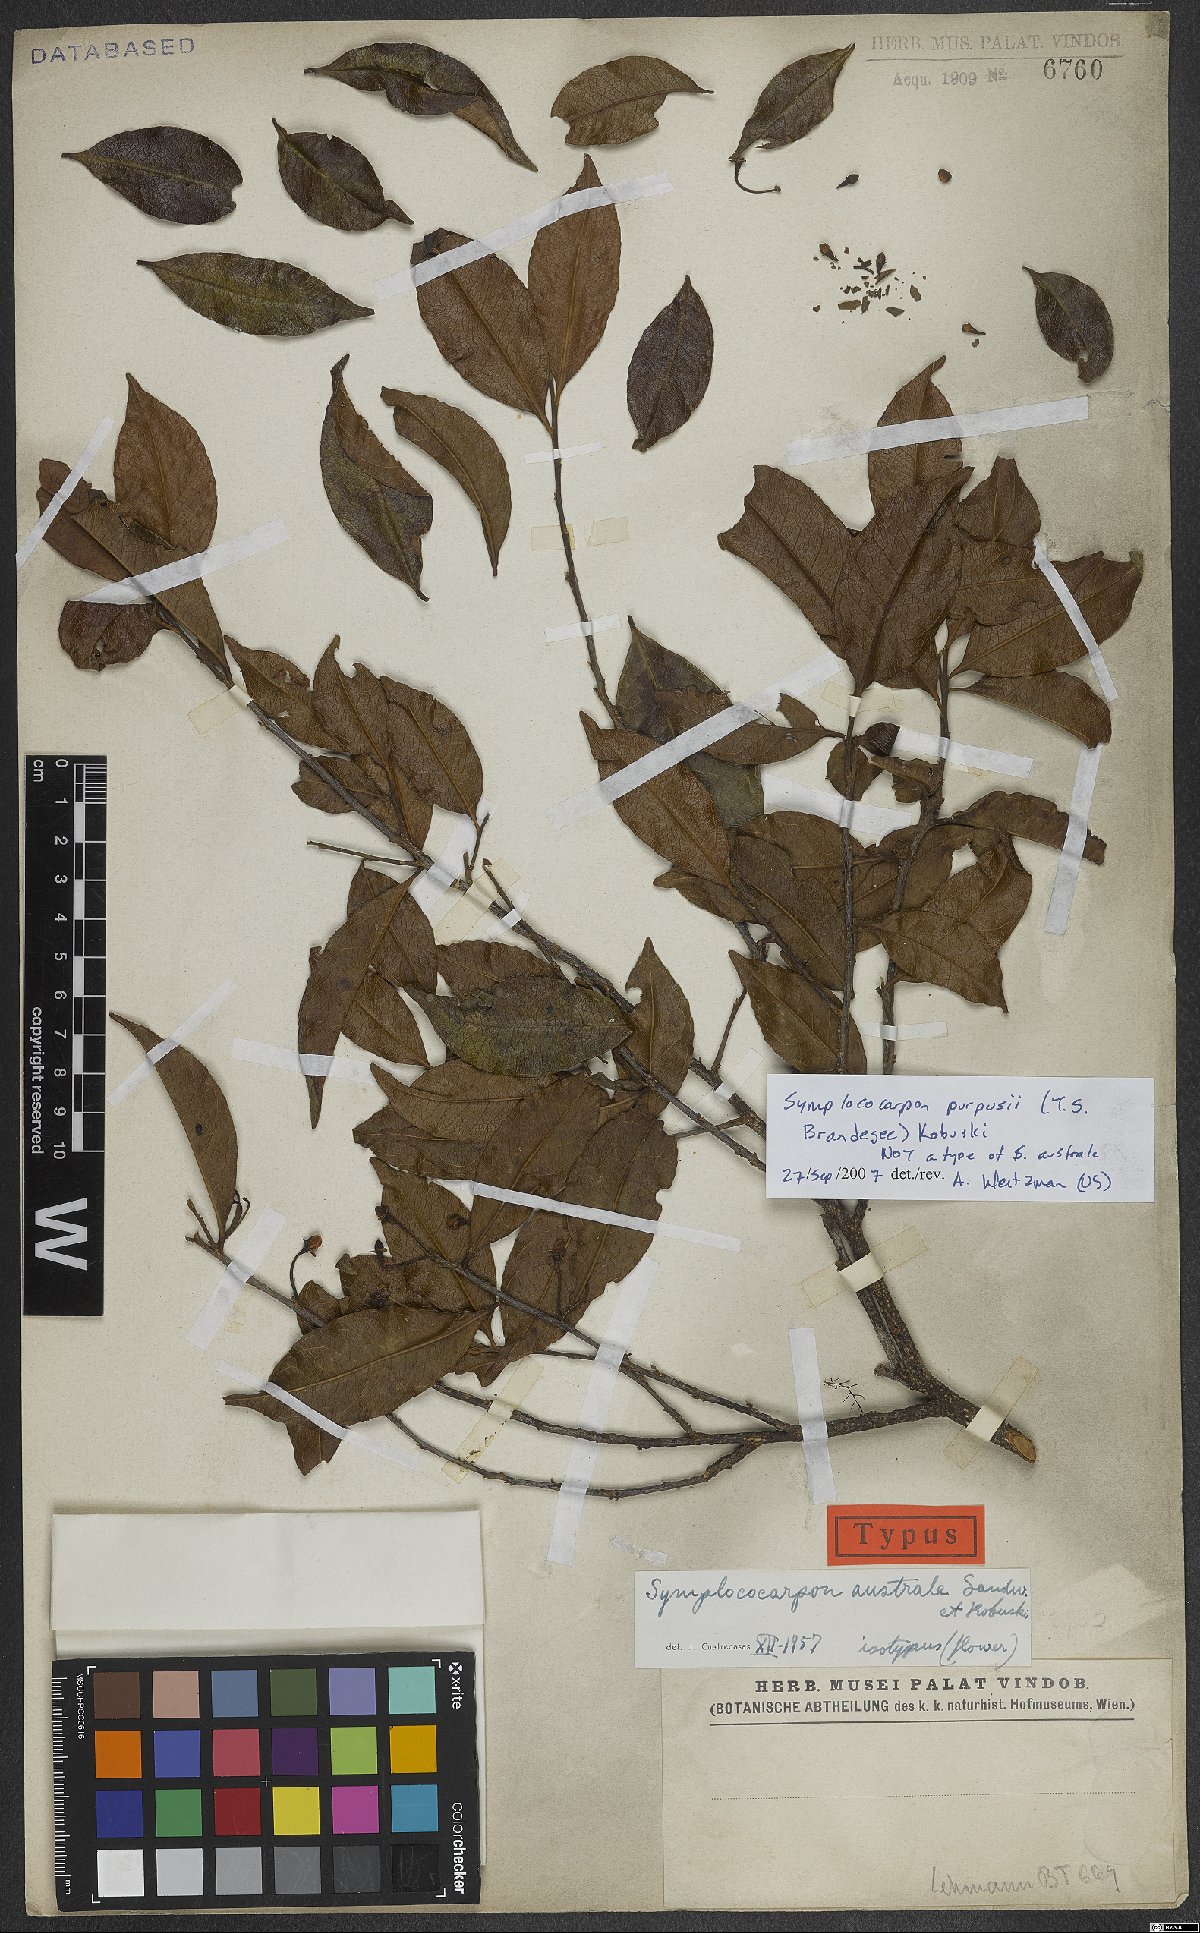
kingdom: Plantae
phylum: Tracheophyta
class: Magnoliopsida
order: Ericales
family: Pentaphylacaceae
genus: Symplococarpon
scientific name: Symplococarpon purpusii
